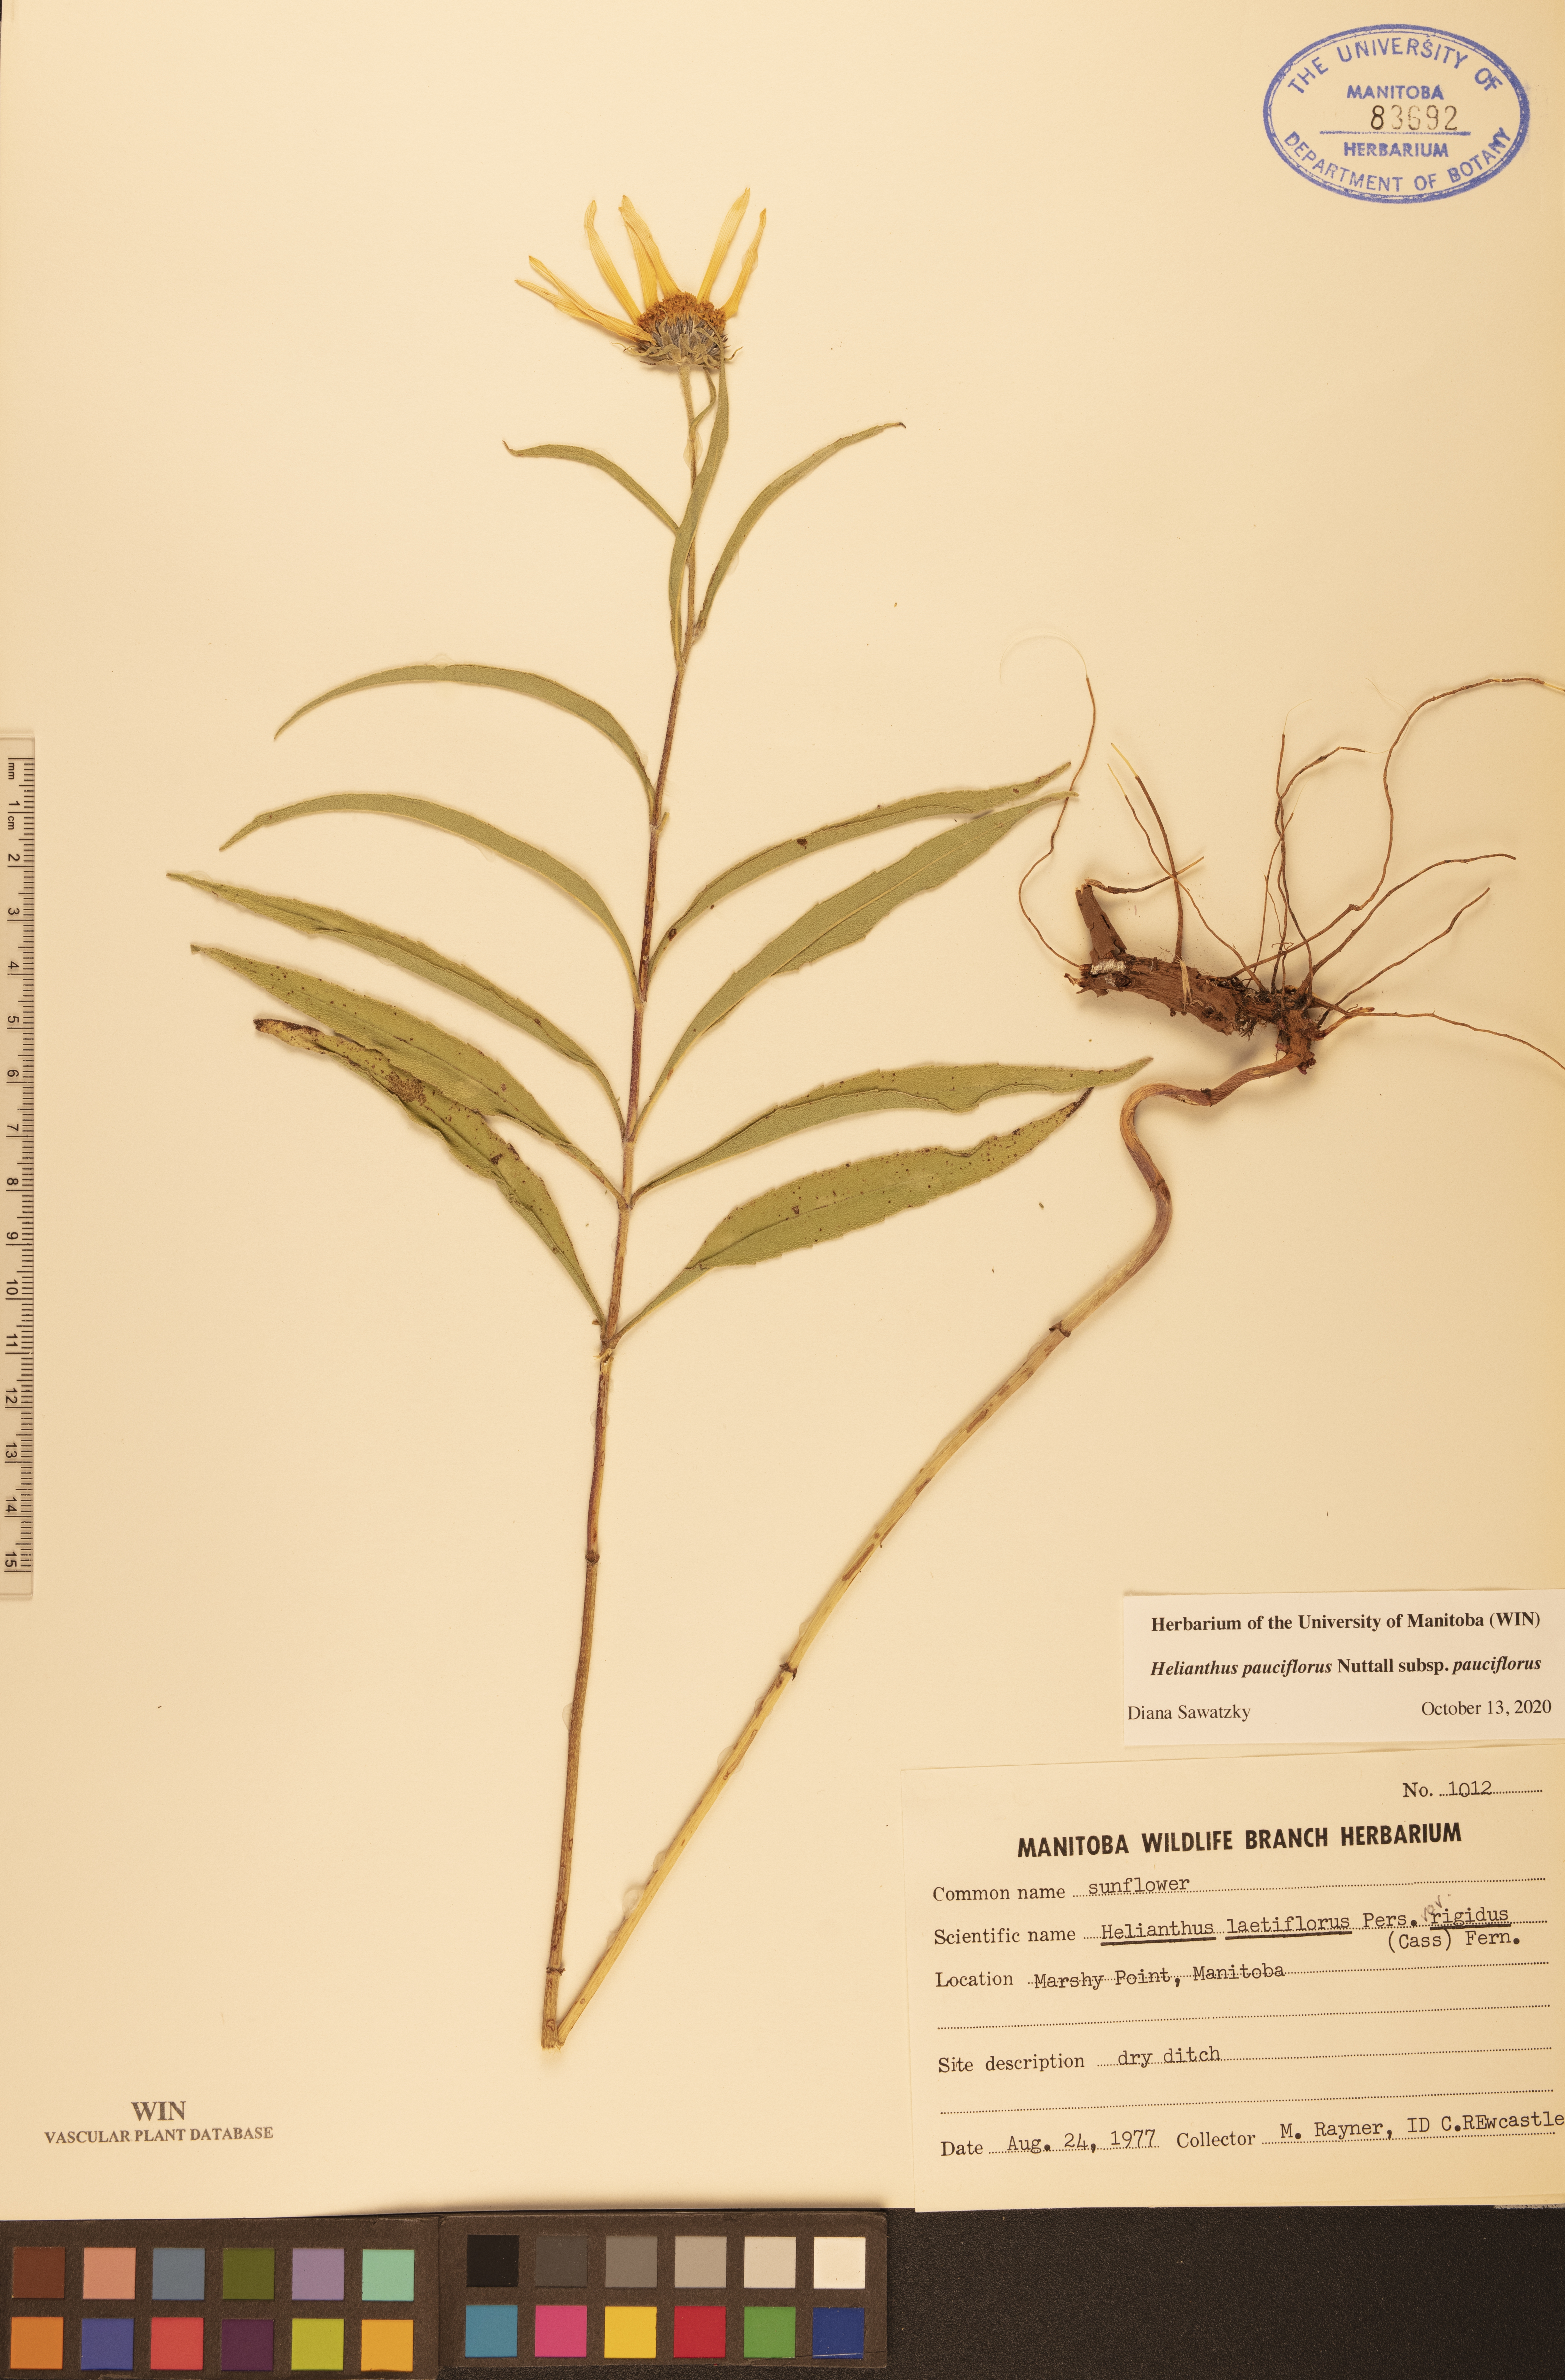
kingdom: Plantae
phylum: Tracheophyta
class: Magnoliopsida
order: Asterales
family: Asteraceae
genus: Helianthus
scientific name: Helianthus pauciflorus
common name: Stiff sunflower
